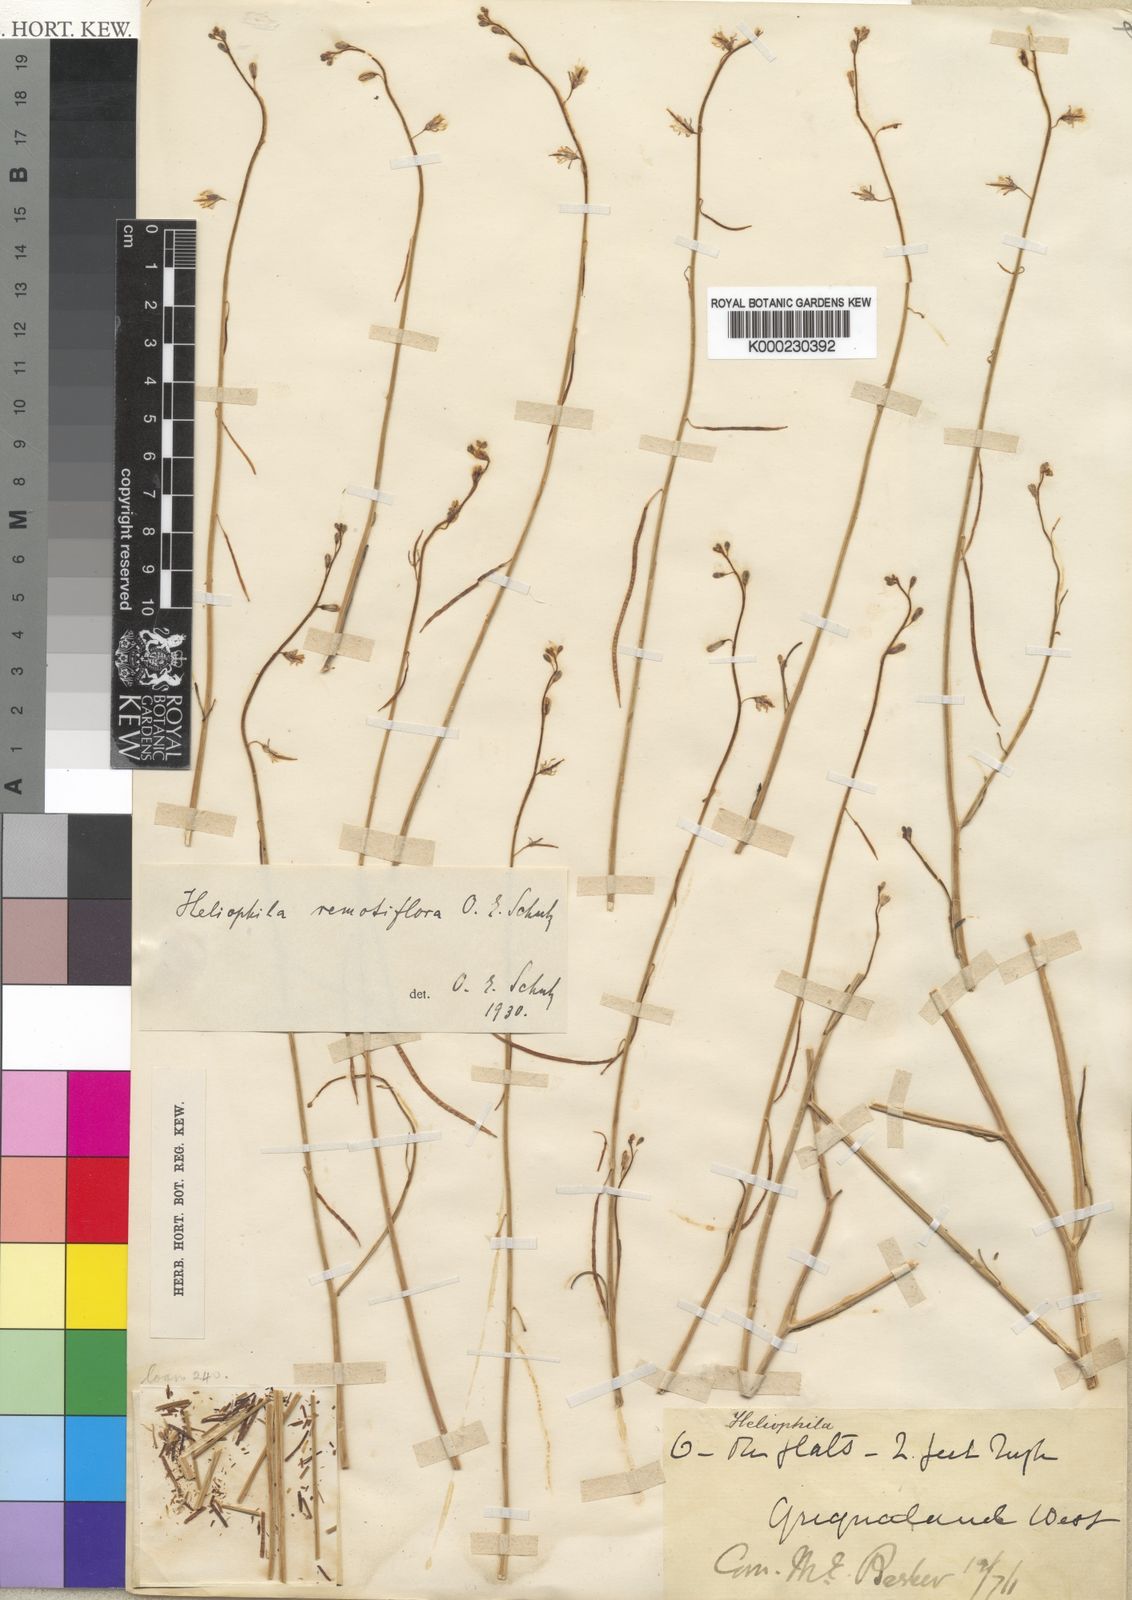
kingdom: Plantae
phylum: Tracheophyta
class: Magnoliopsida
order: Brassicales
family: Brassicaceae
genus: Heliophila
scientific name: Heliophila remotiflora
